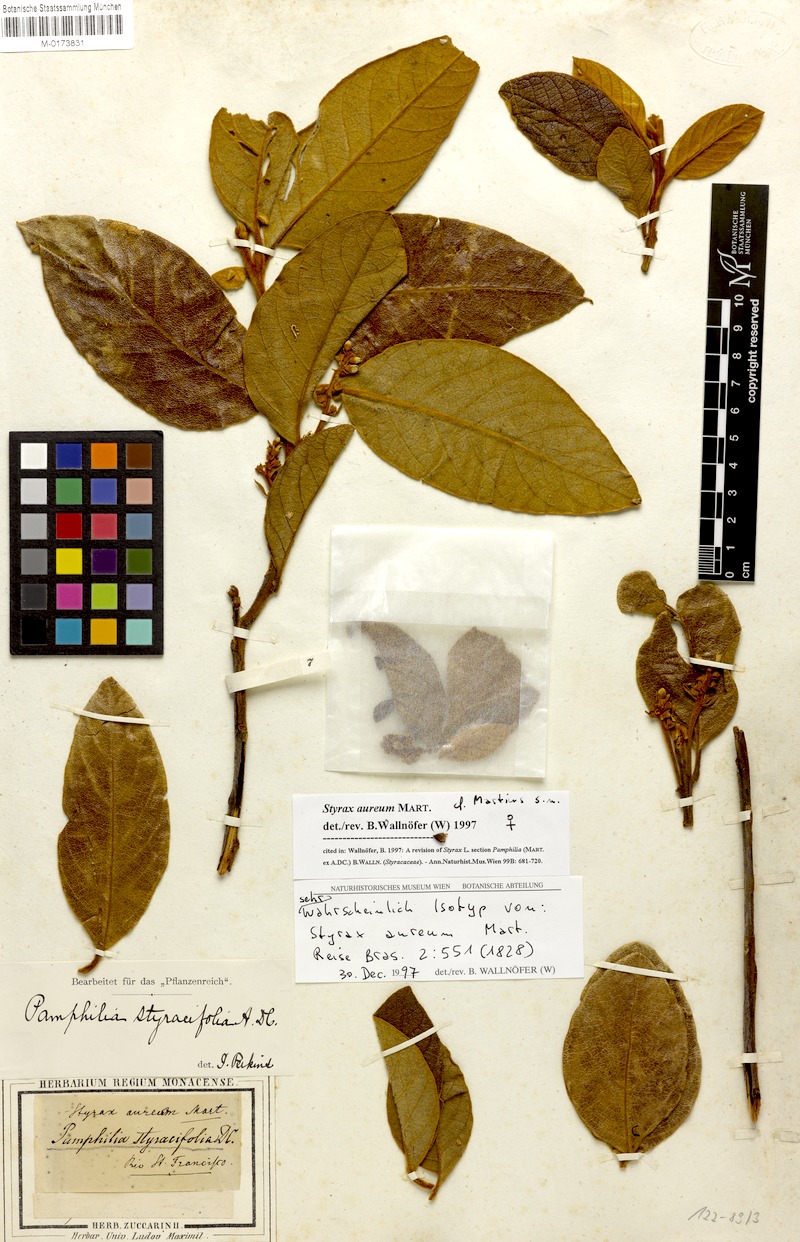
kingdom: Plantae
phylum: Tracheophyta
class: Magnoliopsida
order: Ericales
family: Styracaceae
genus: Styrax
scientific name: Styrax aureus
